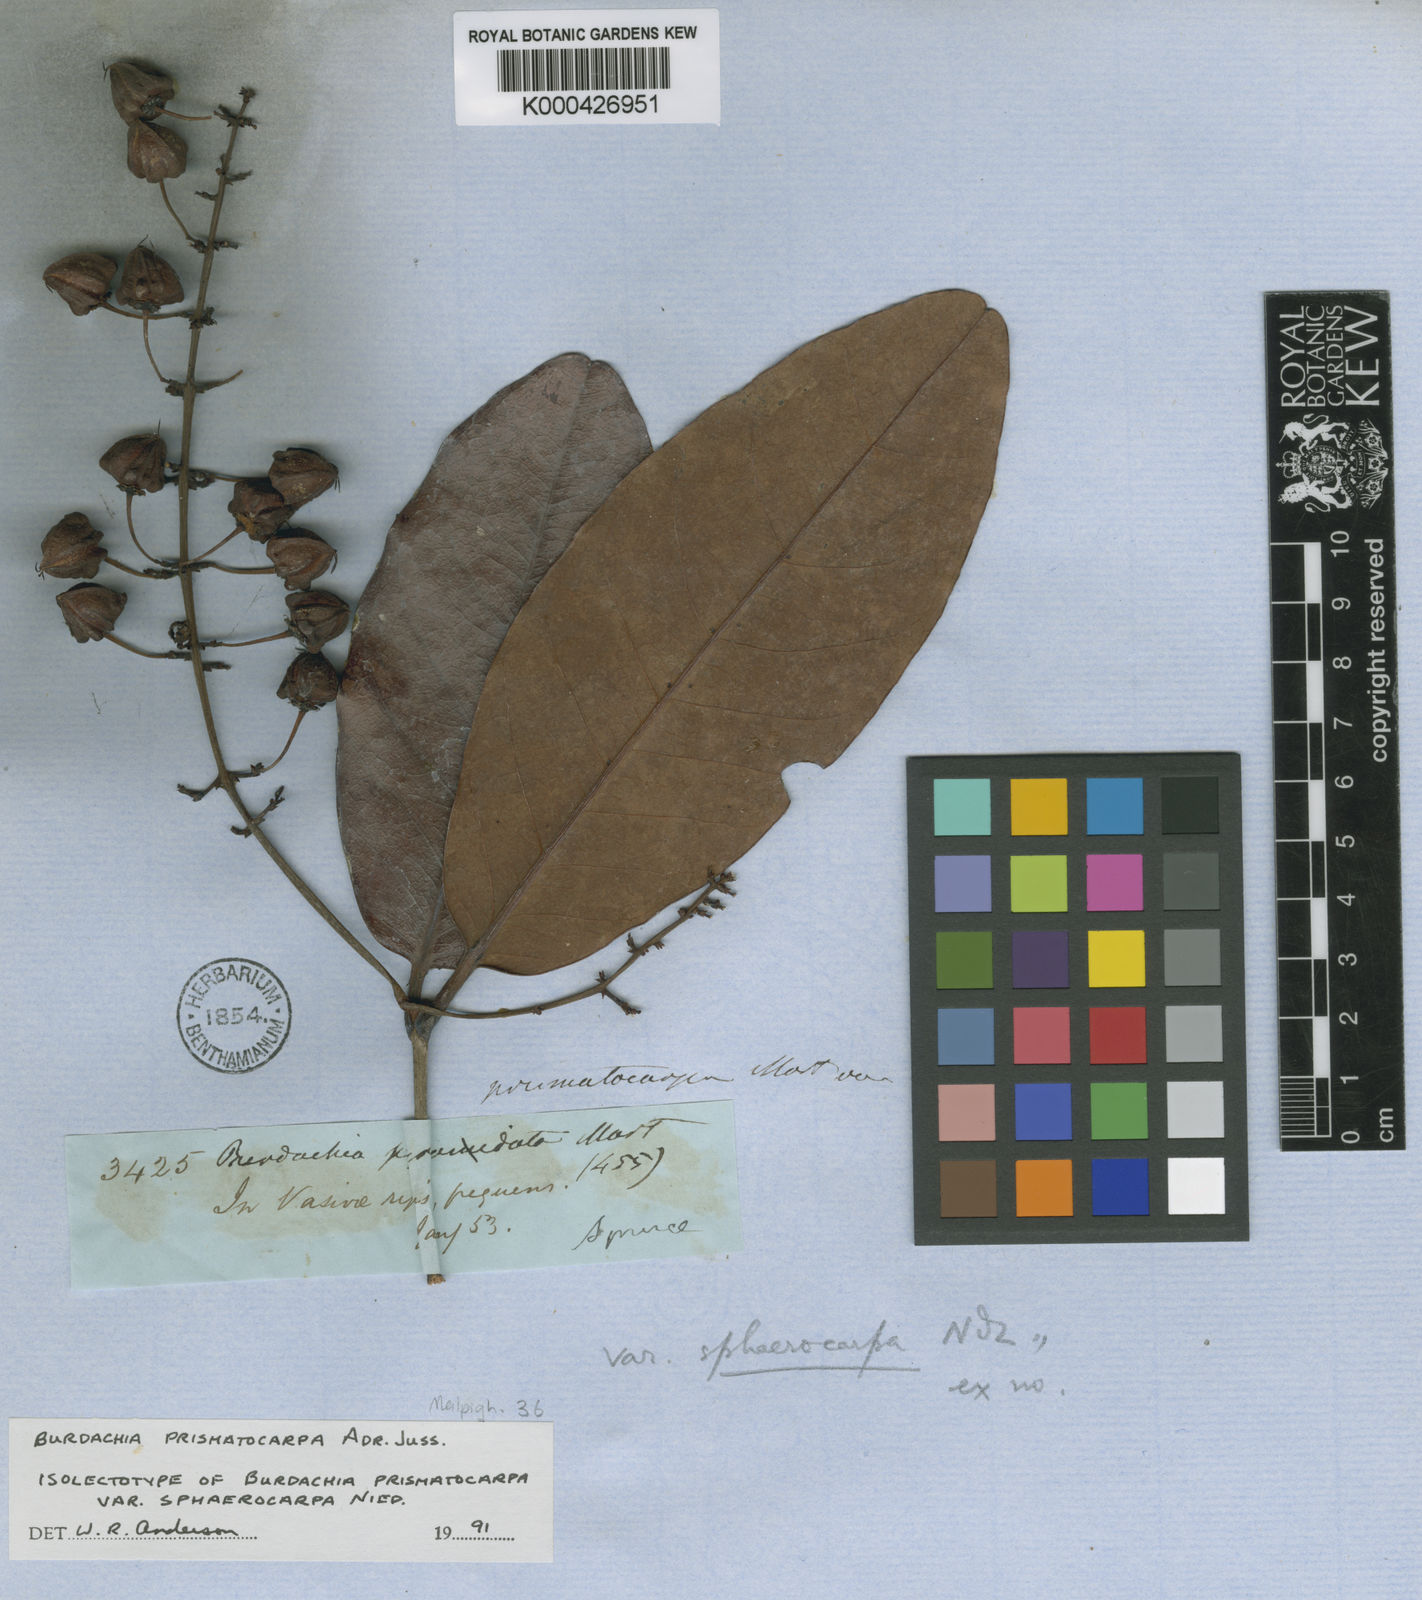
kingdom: Plantae
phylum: Tracheophyta
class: Magnoliopsida
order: Malpighiales
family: Malpighiaceae
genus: Burdachia
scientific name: Burdachia prismatocarpa
